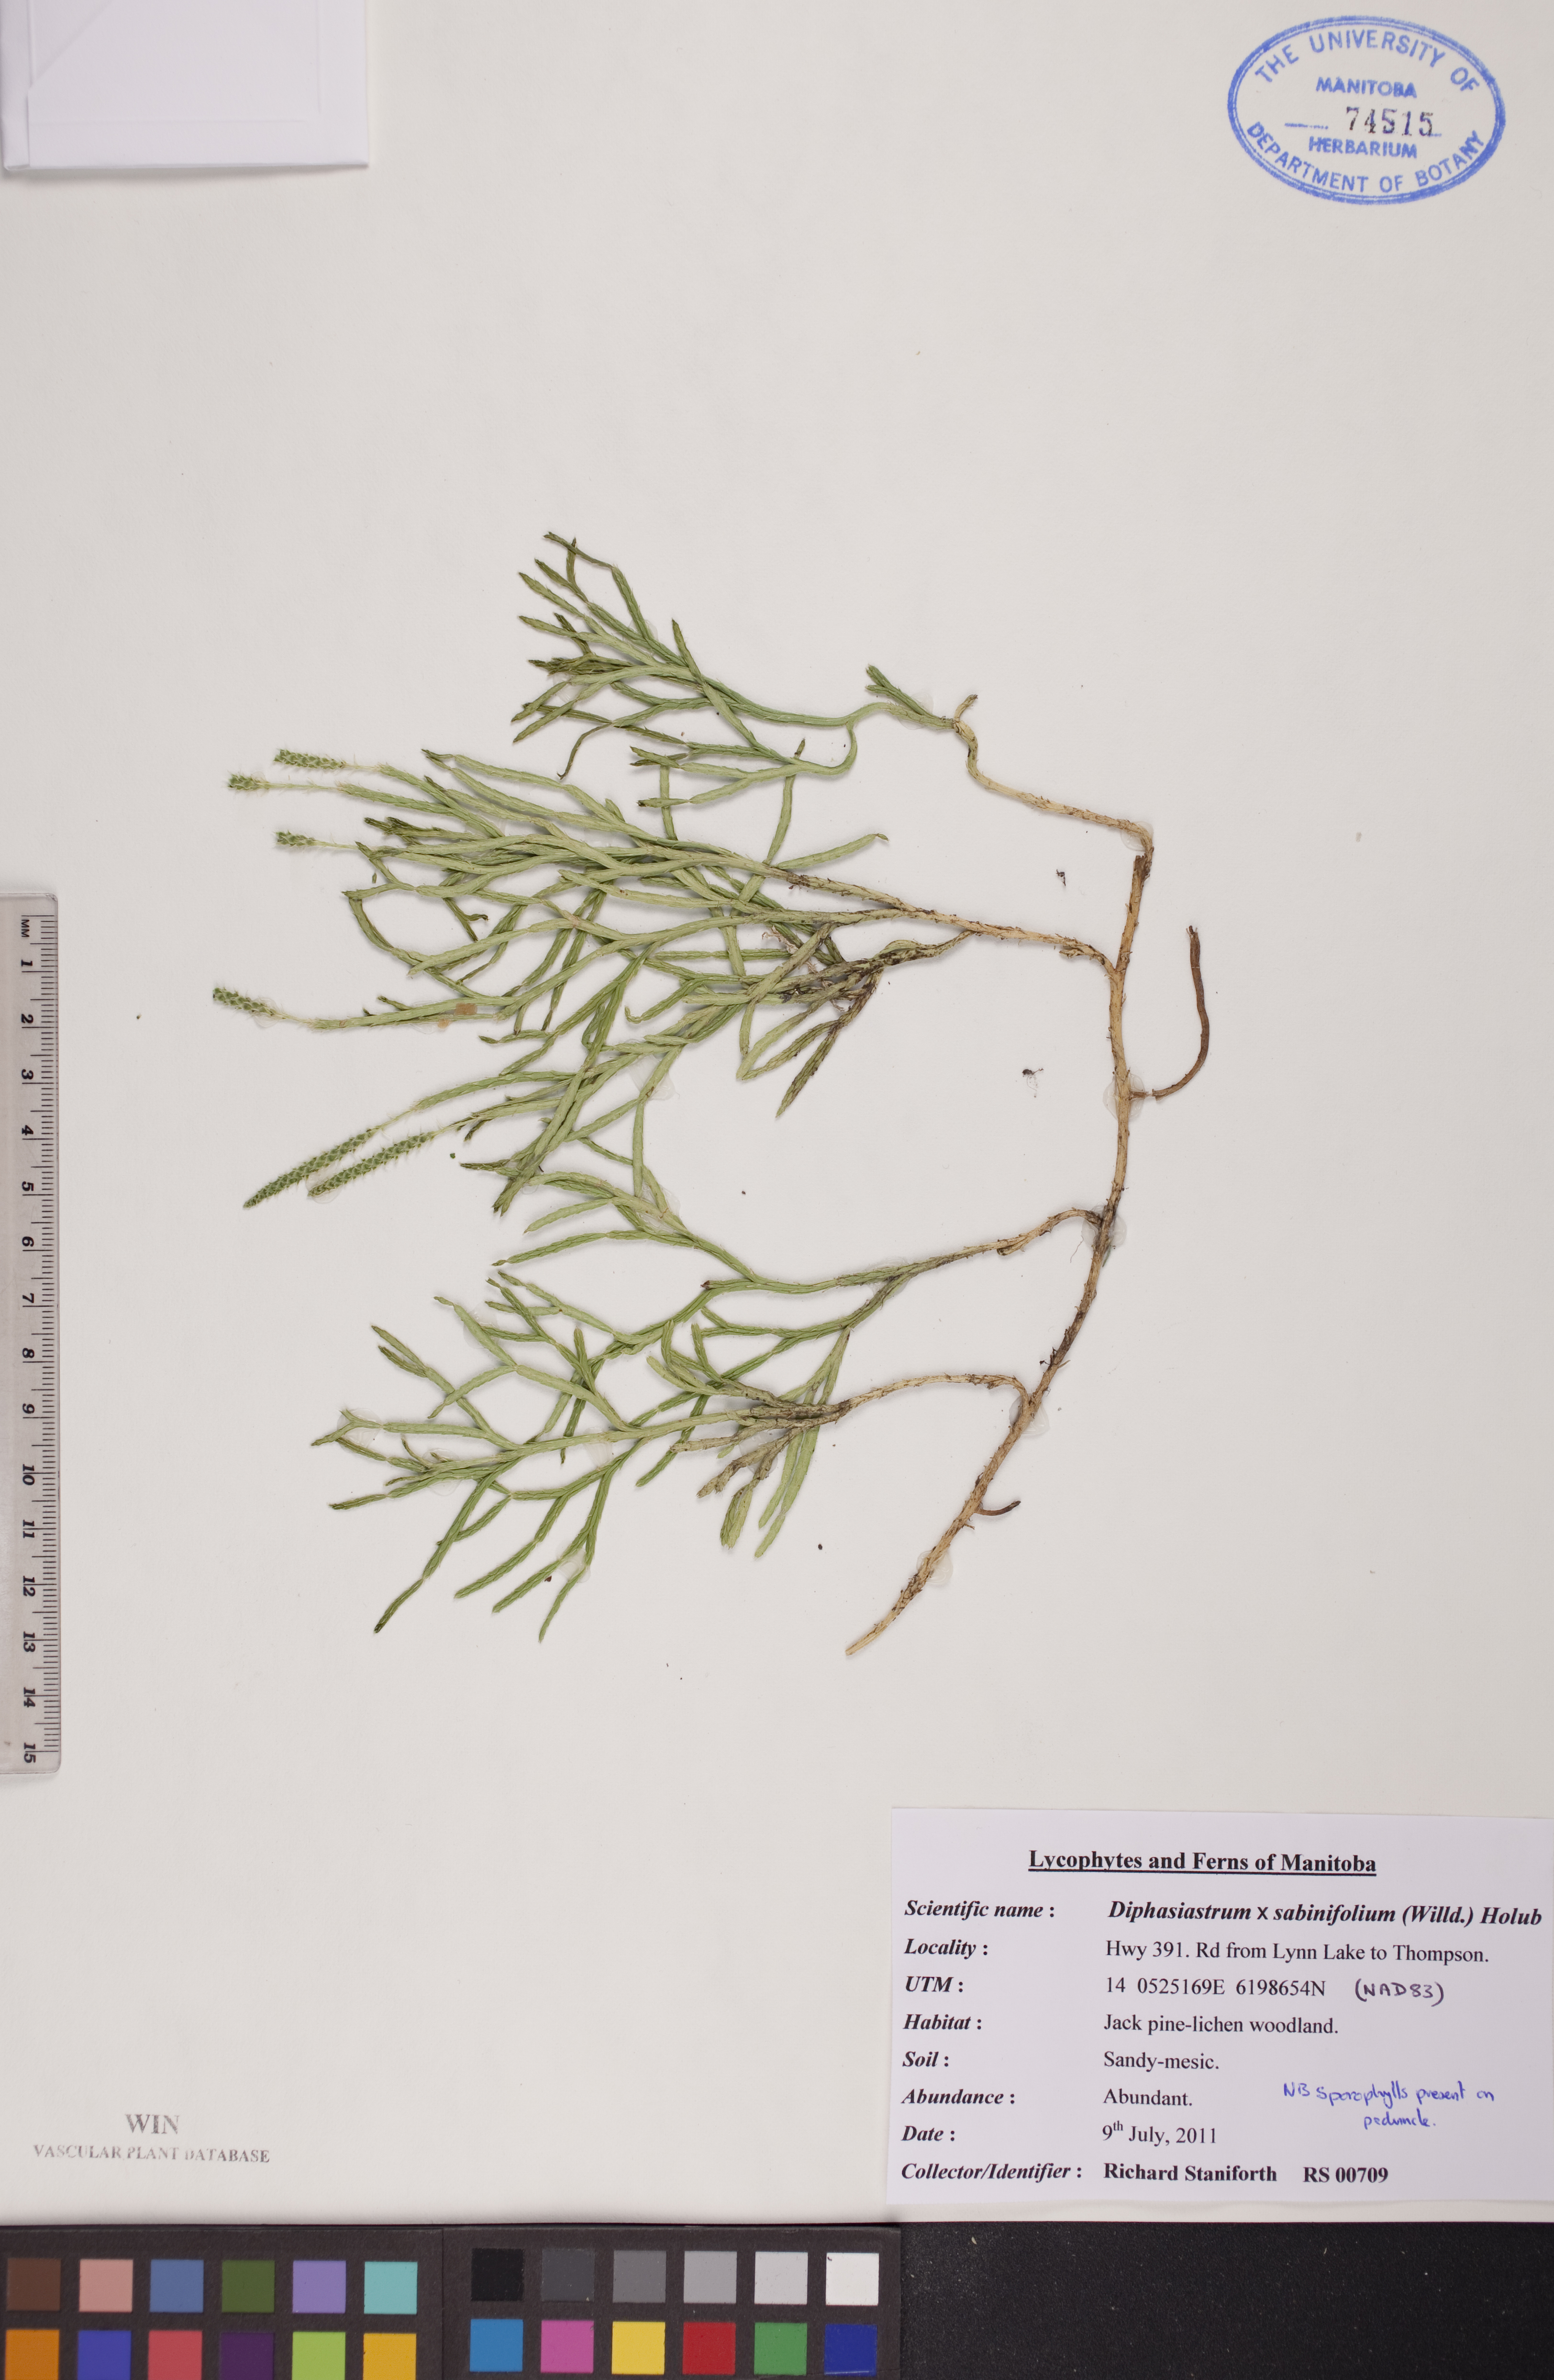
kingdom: Plantae
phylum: Tracheophyta
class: Lycopodiopsida
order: Lycopodiales
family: Lycopodiaceae
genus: Diphasiastrum
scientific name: Diphasiastrum sabinifolium
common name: Juniper clubmoss
